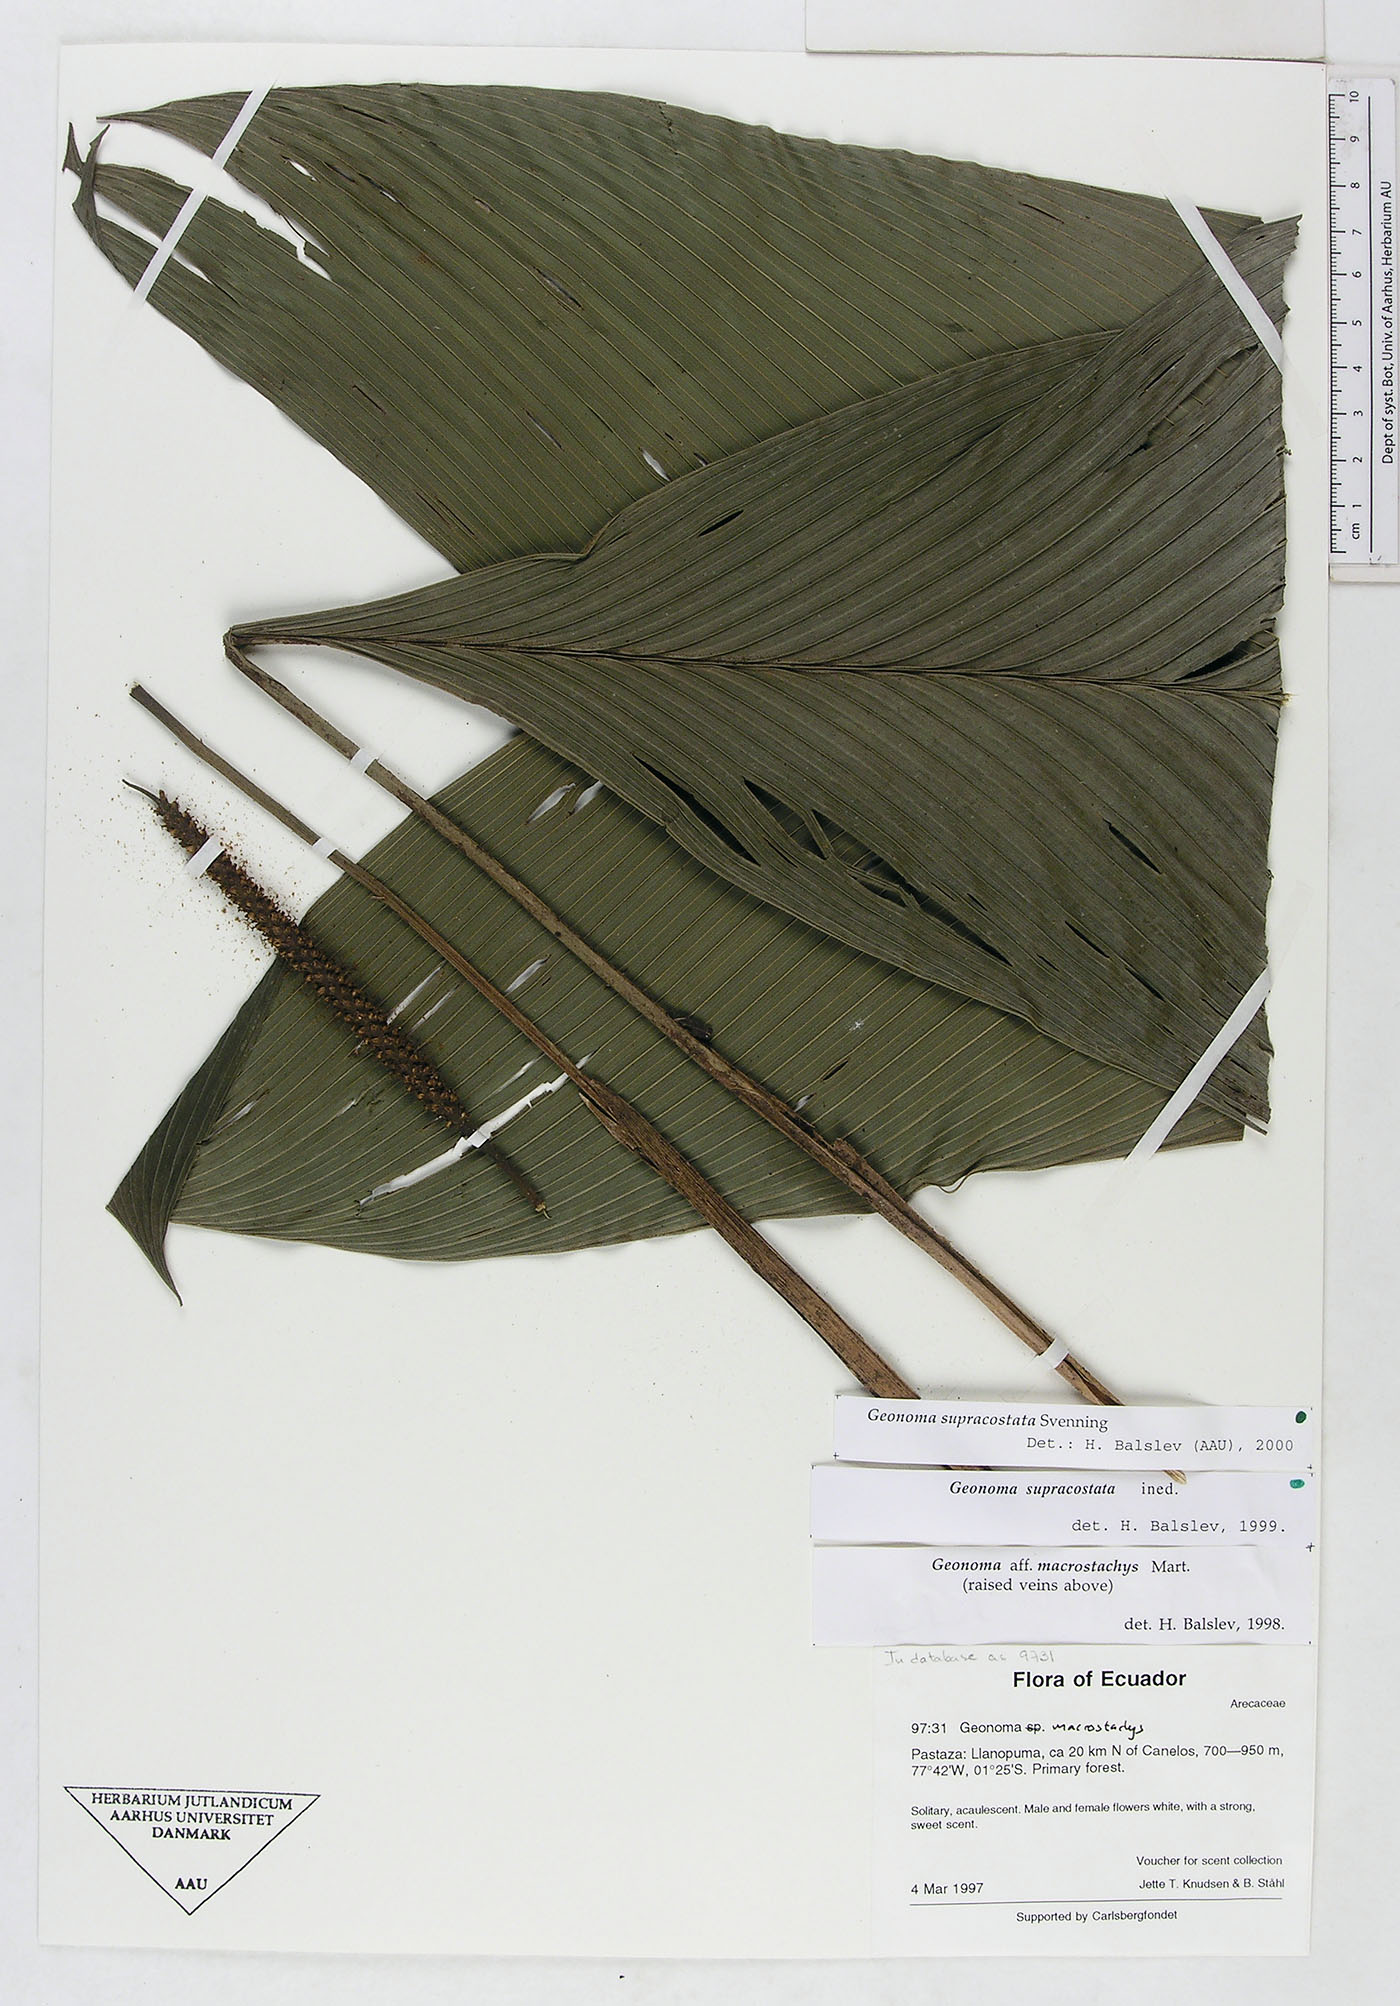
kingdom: Plantae
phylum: Tracheophyta
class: Liliopsida
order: Arecales
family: Arecaceae
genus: Geonoma
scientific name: Geonoma macrostachys
